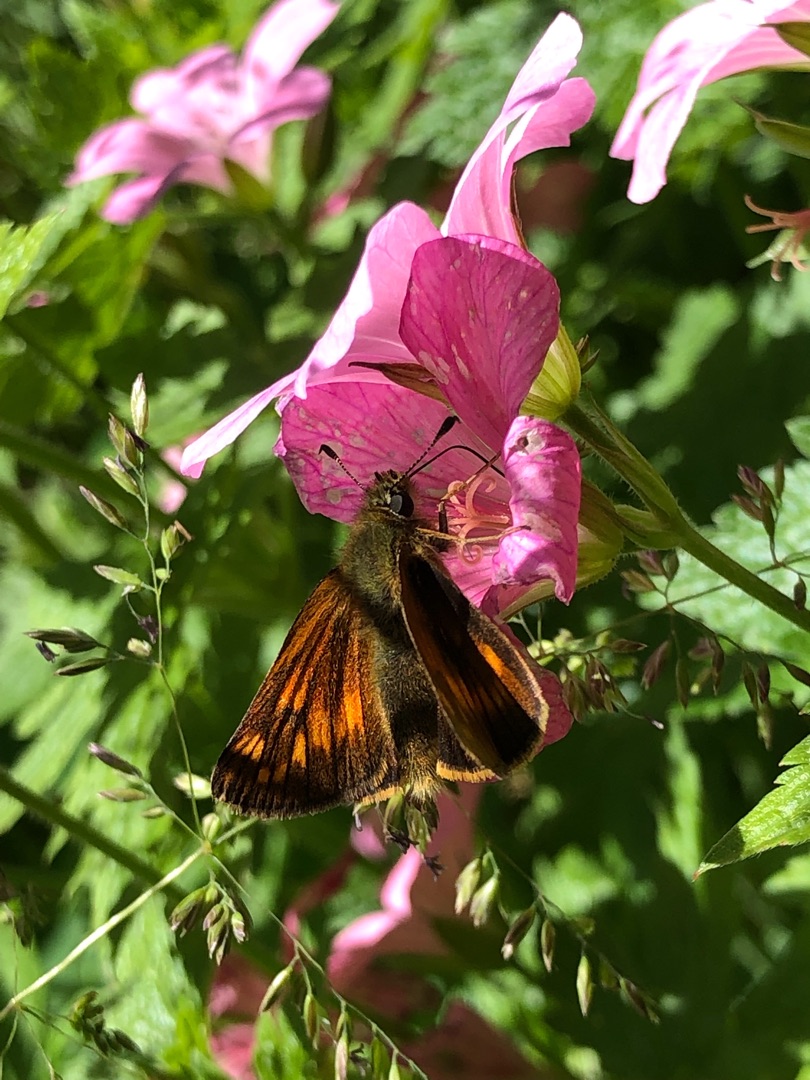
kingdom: Animalia
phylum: Arthropoda
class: Insecta
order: Lepidoptera
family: Hesperiidae
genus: Ochlodes
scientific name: Ochlodes venata
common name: Stor bredpande
